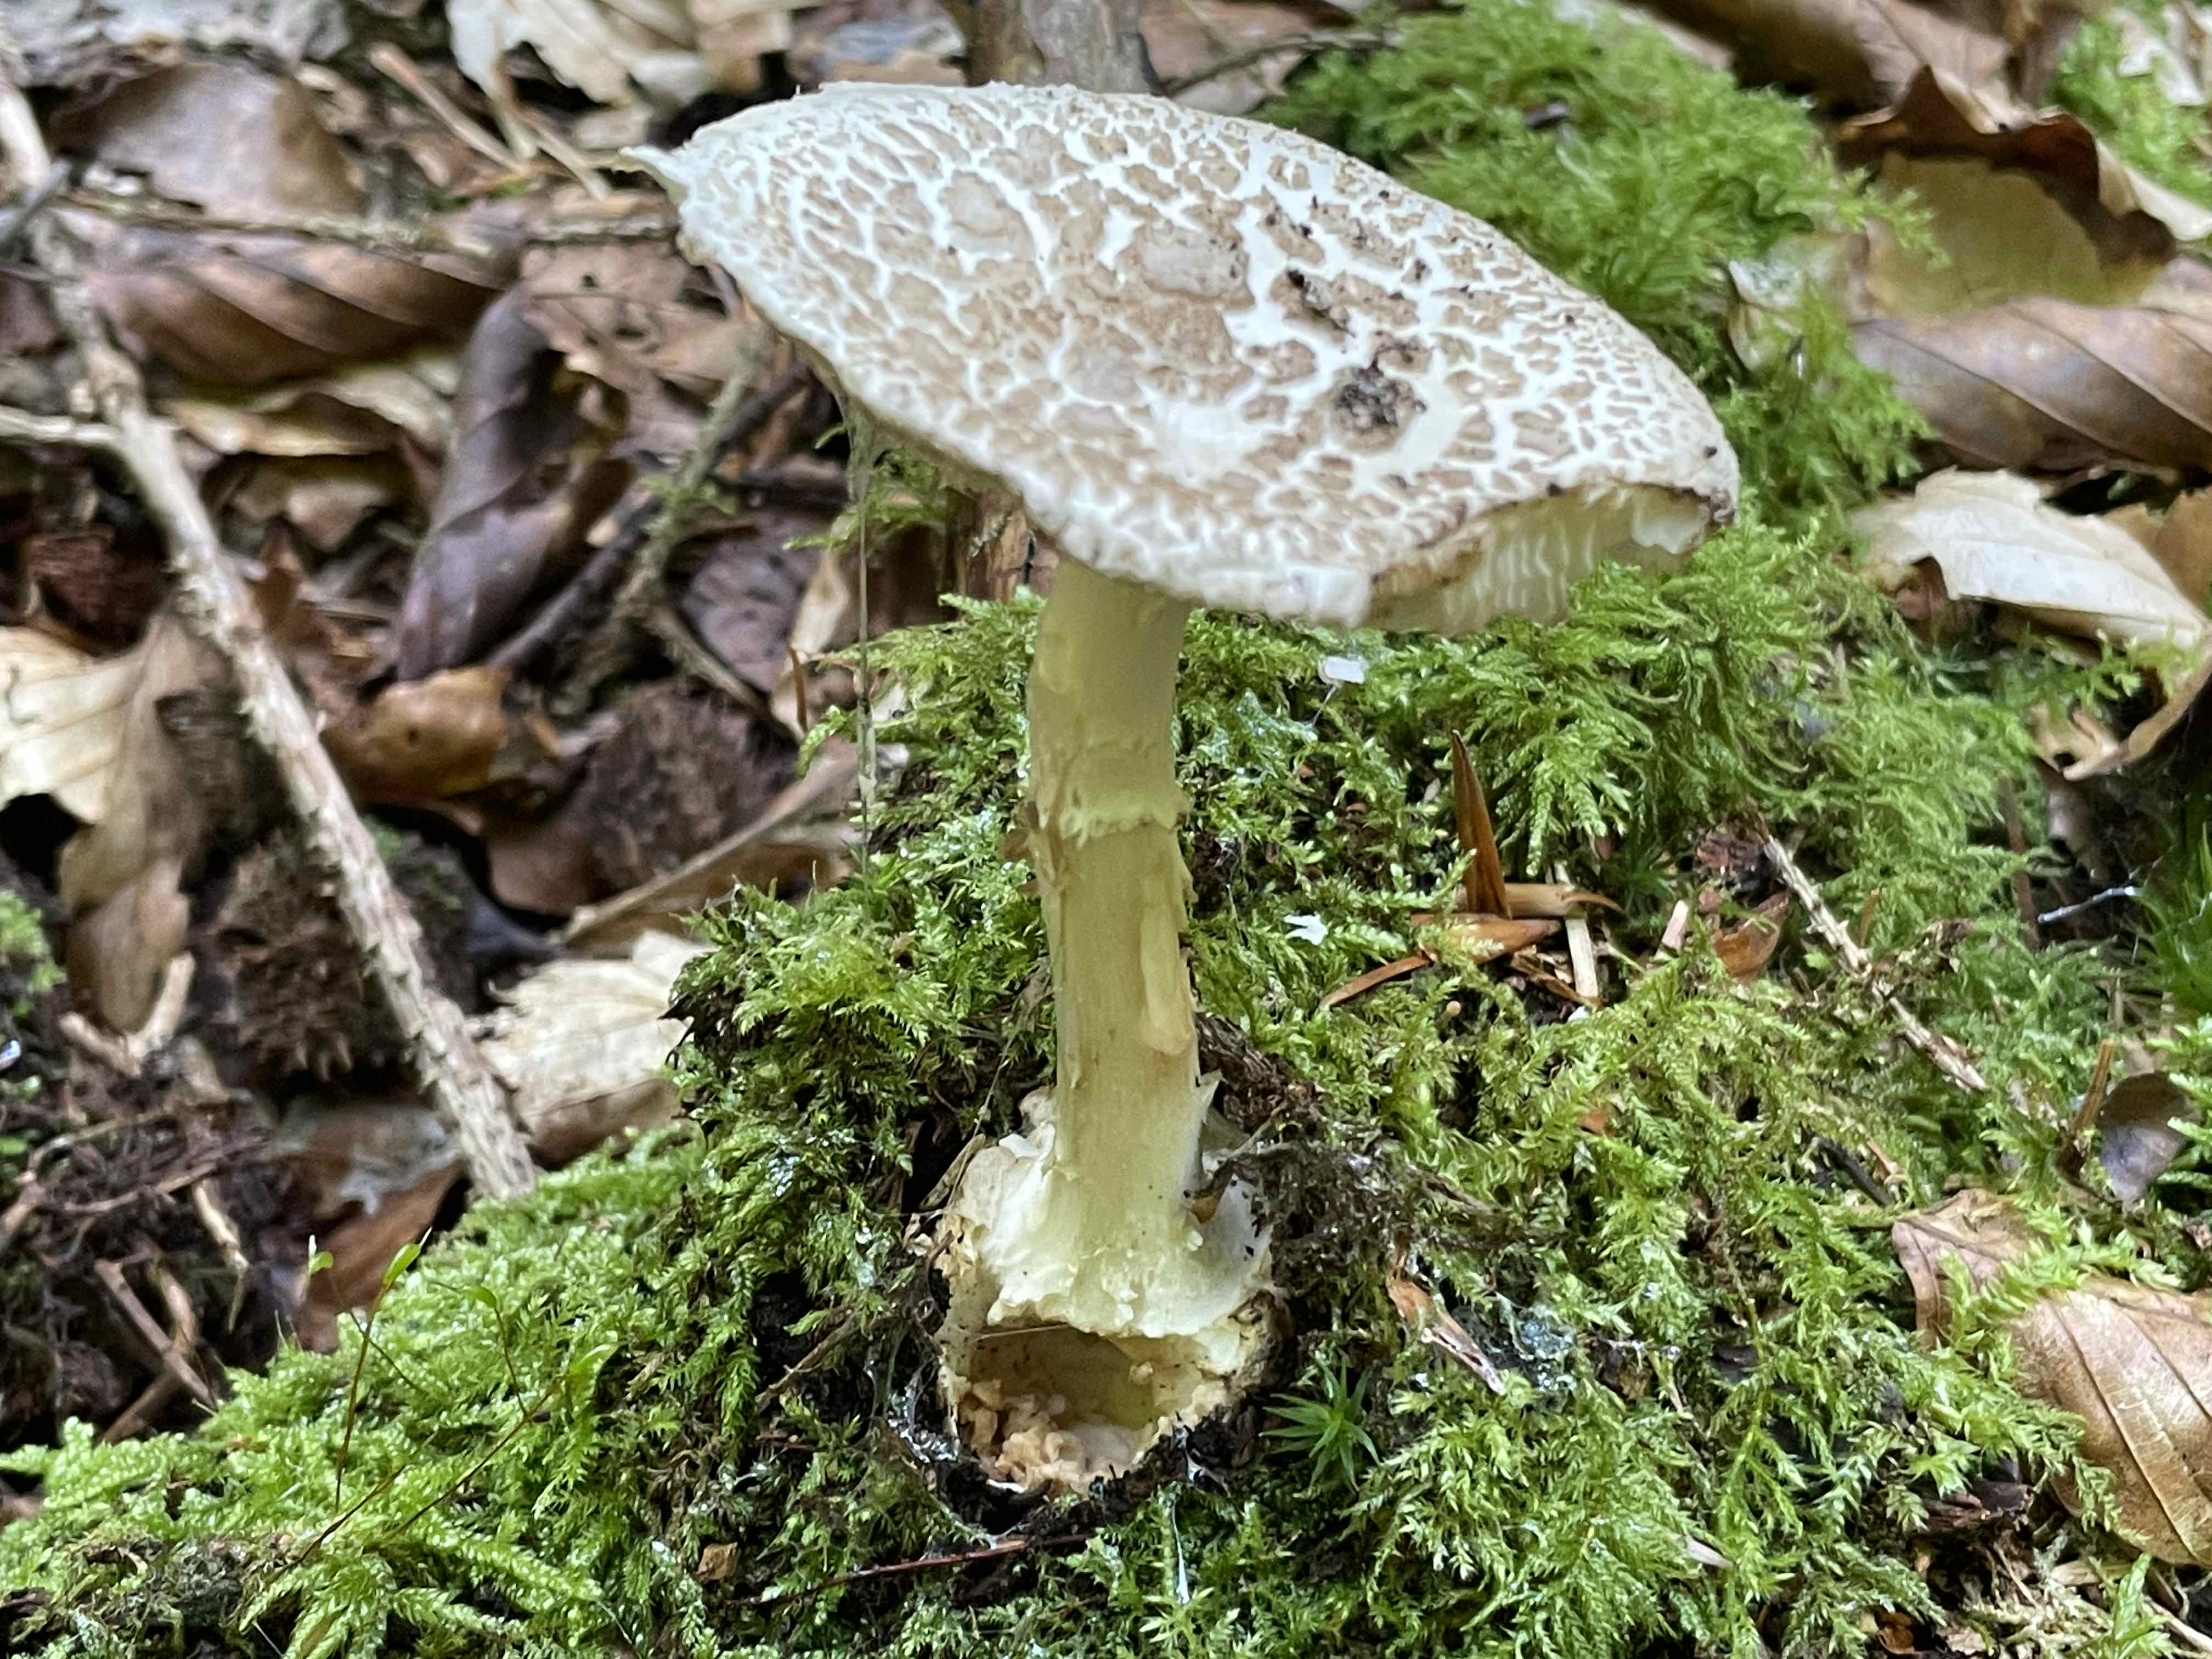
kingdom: Fungi
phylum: Basidiomycota
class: Agaricomycetes
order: Agaricales
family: Amanitaceae
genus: Amanita
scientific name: Amanita citrina
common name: kugleknoldet fluesvamp
